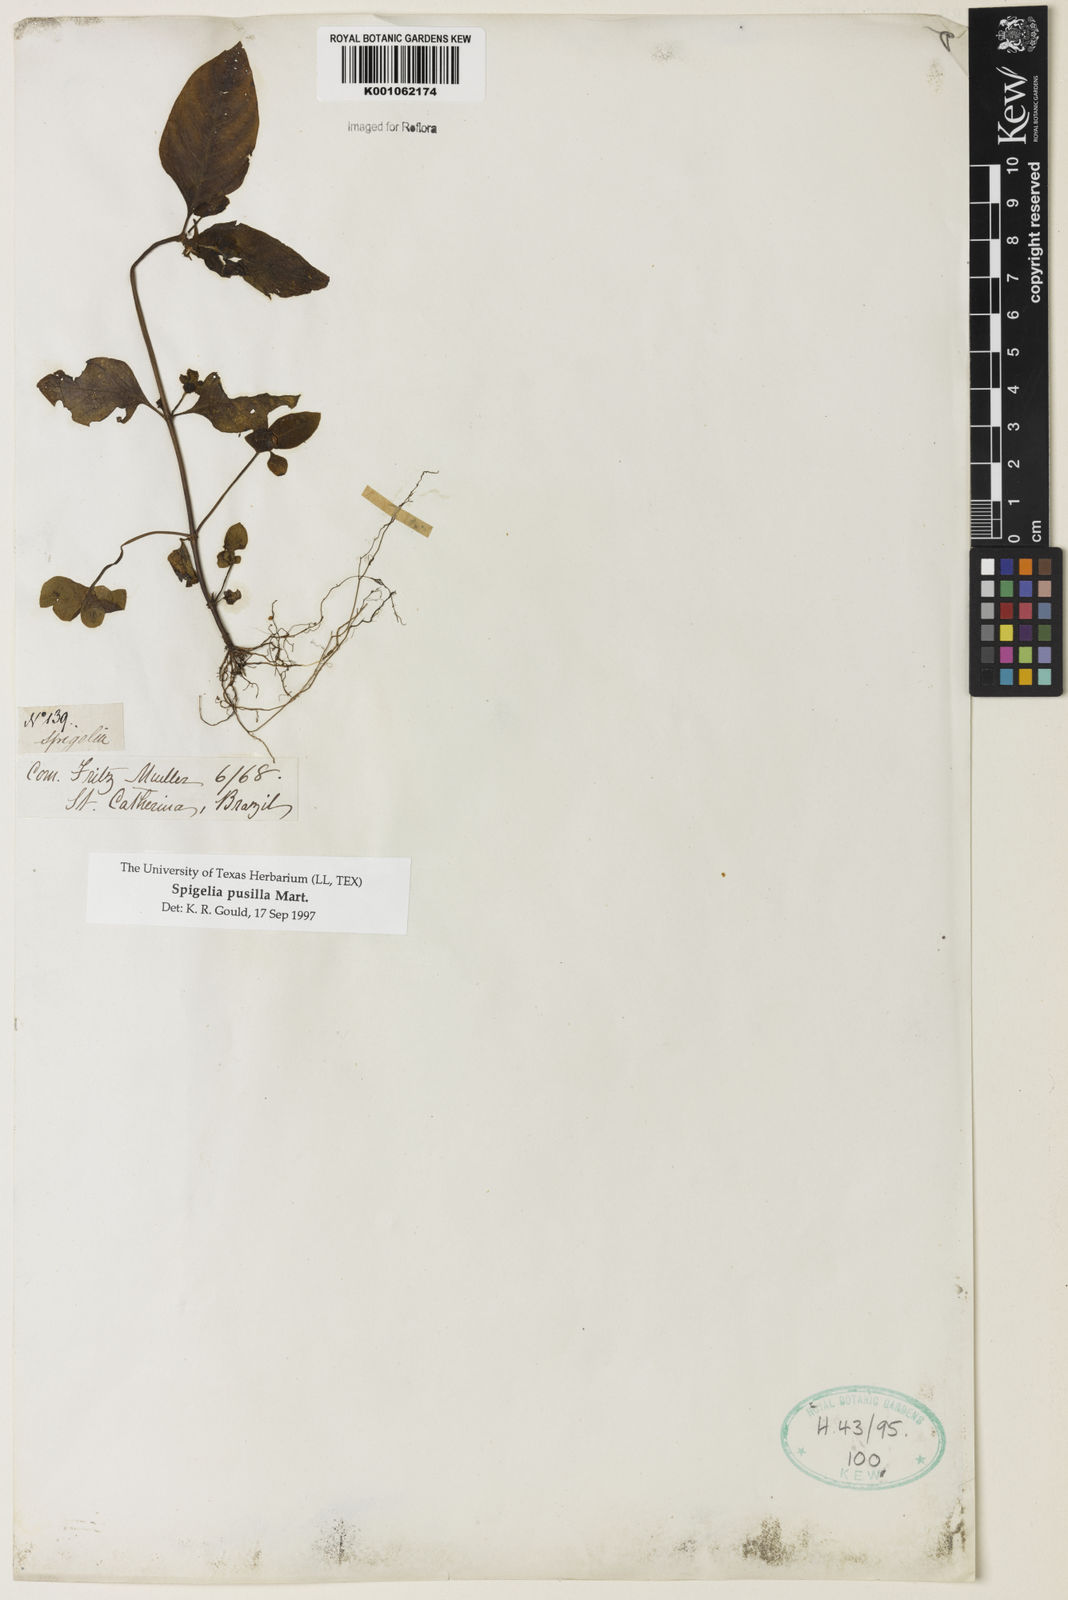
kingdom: Plantae
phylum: Tracheophyta
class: Magnoliopsida
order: Gentianales
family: Loganiaceae
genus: Spigelia
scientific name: Spigelia pusilla
